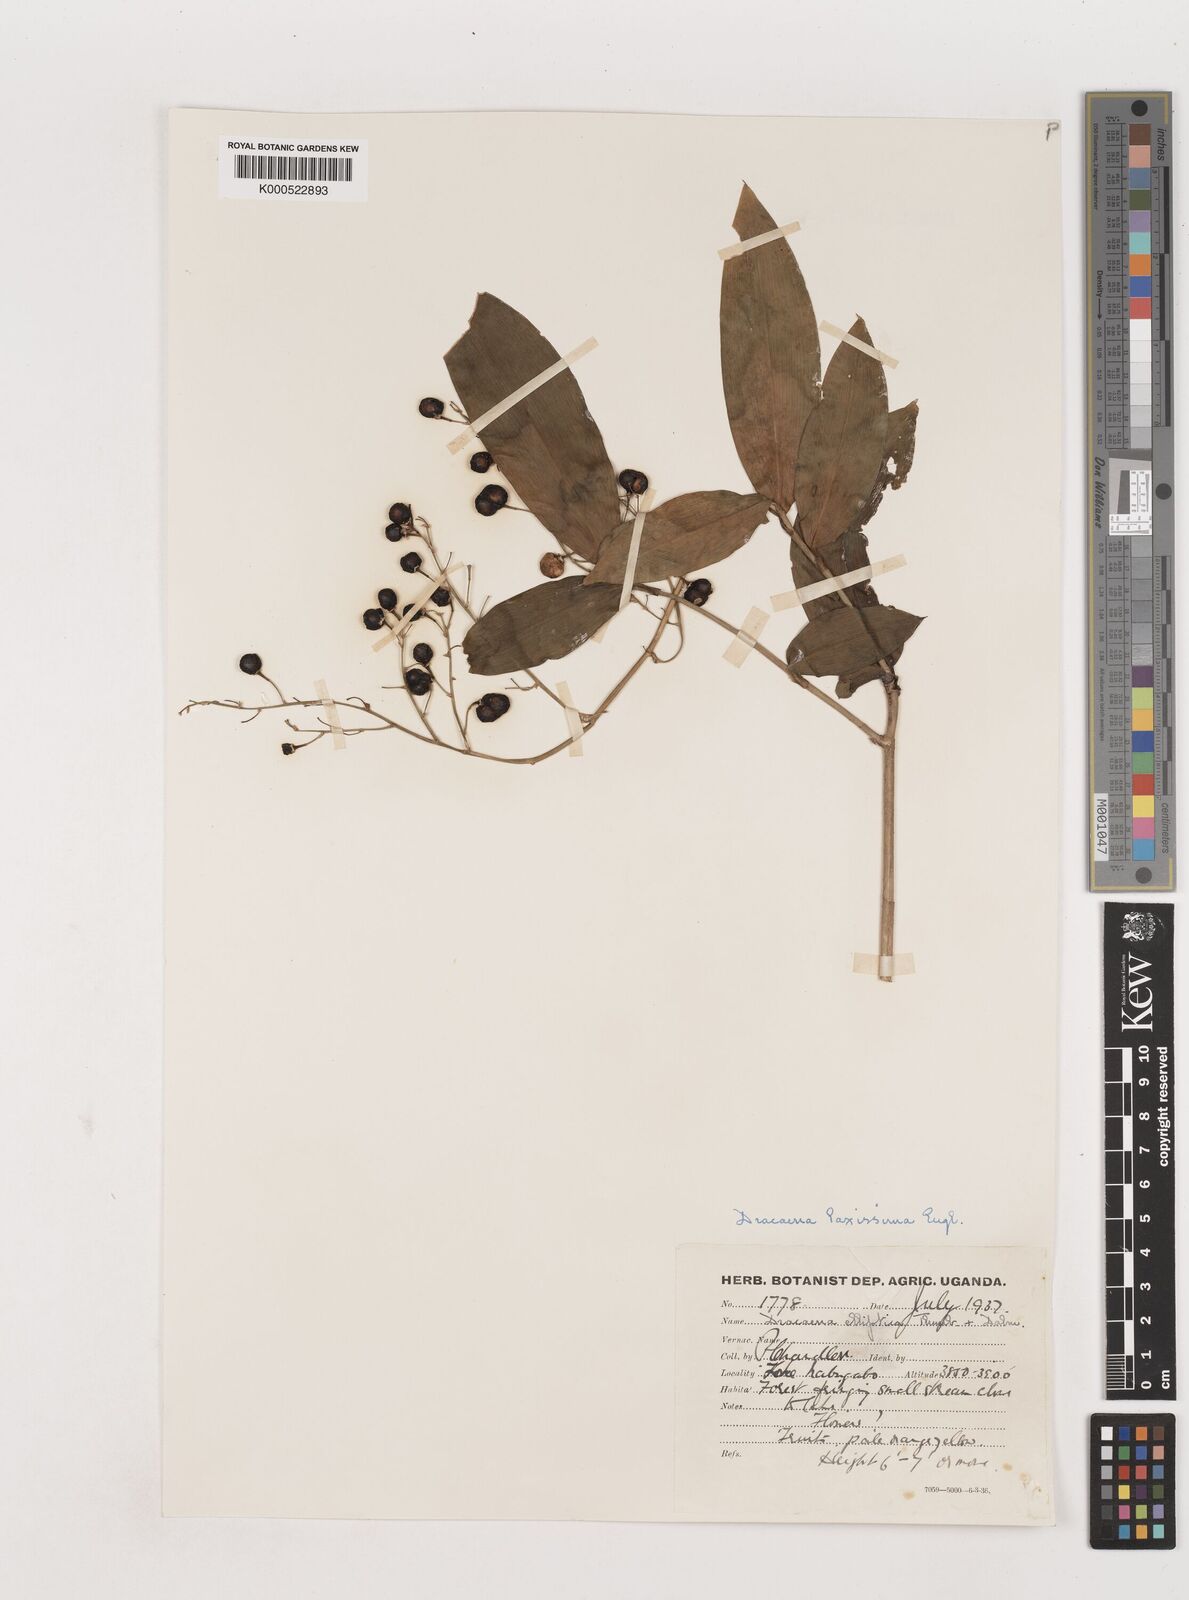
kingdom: Plantae
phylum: Tracheophyta
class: Liliopsida
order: Asparagales
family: Asparagaceae
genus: Dracaena
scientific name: Dracaena laxissima
